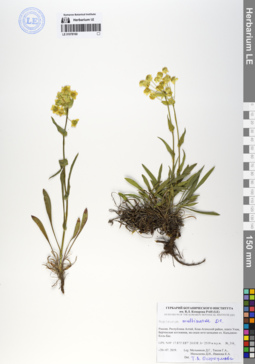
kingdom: Plantae
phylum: Tracheophyta
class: Magnoliopsida
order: Apiales
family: Apiaceae
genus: Bupleurum
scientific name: Bupleurum multinerve
